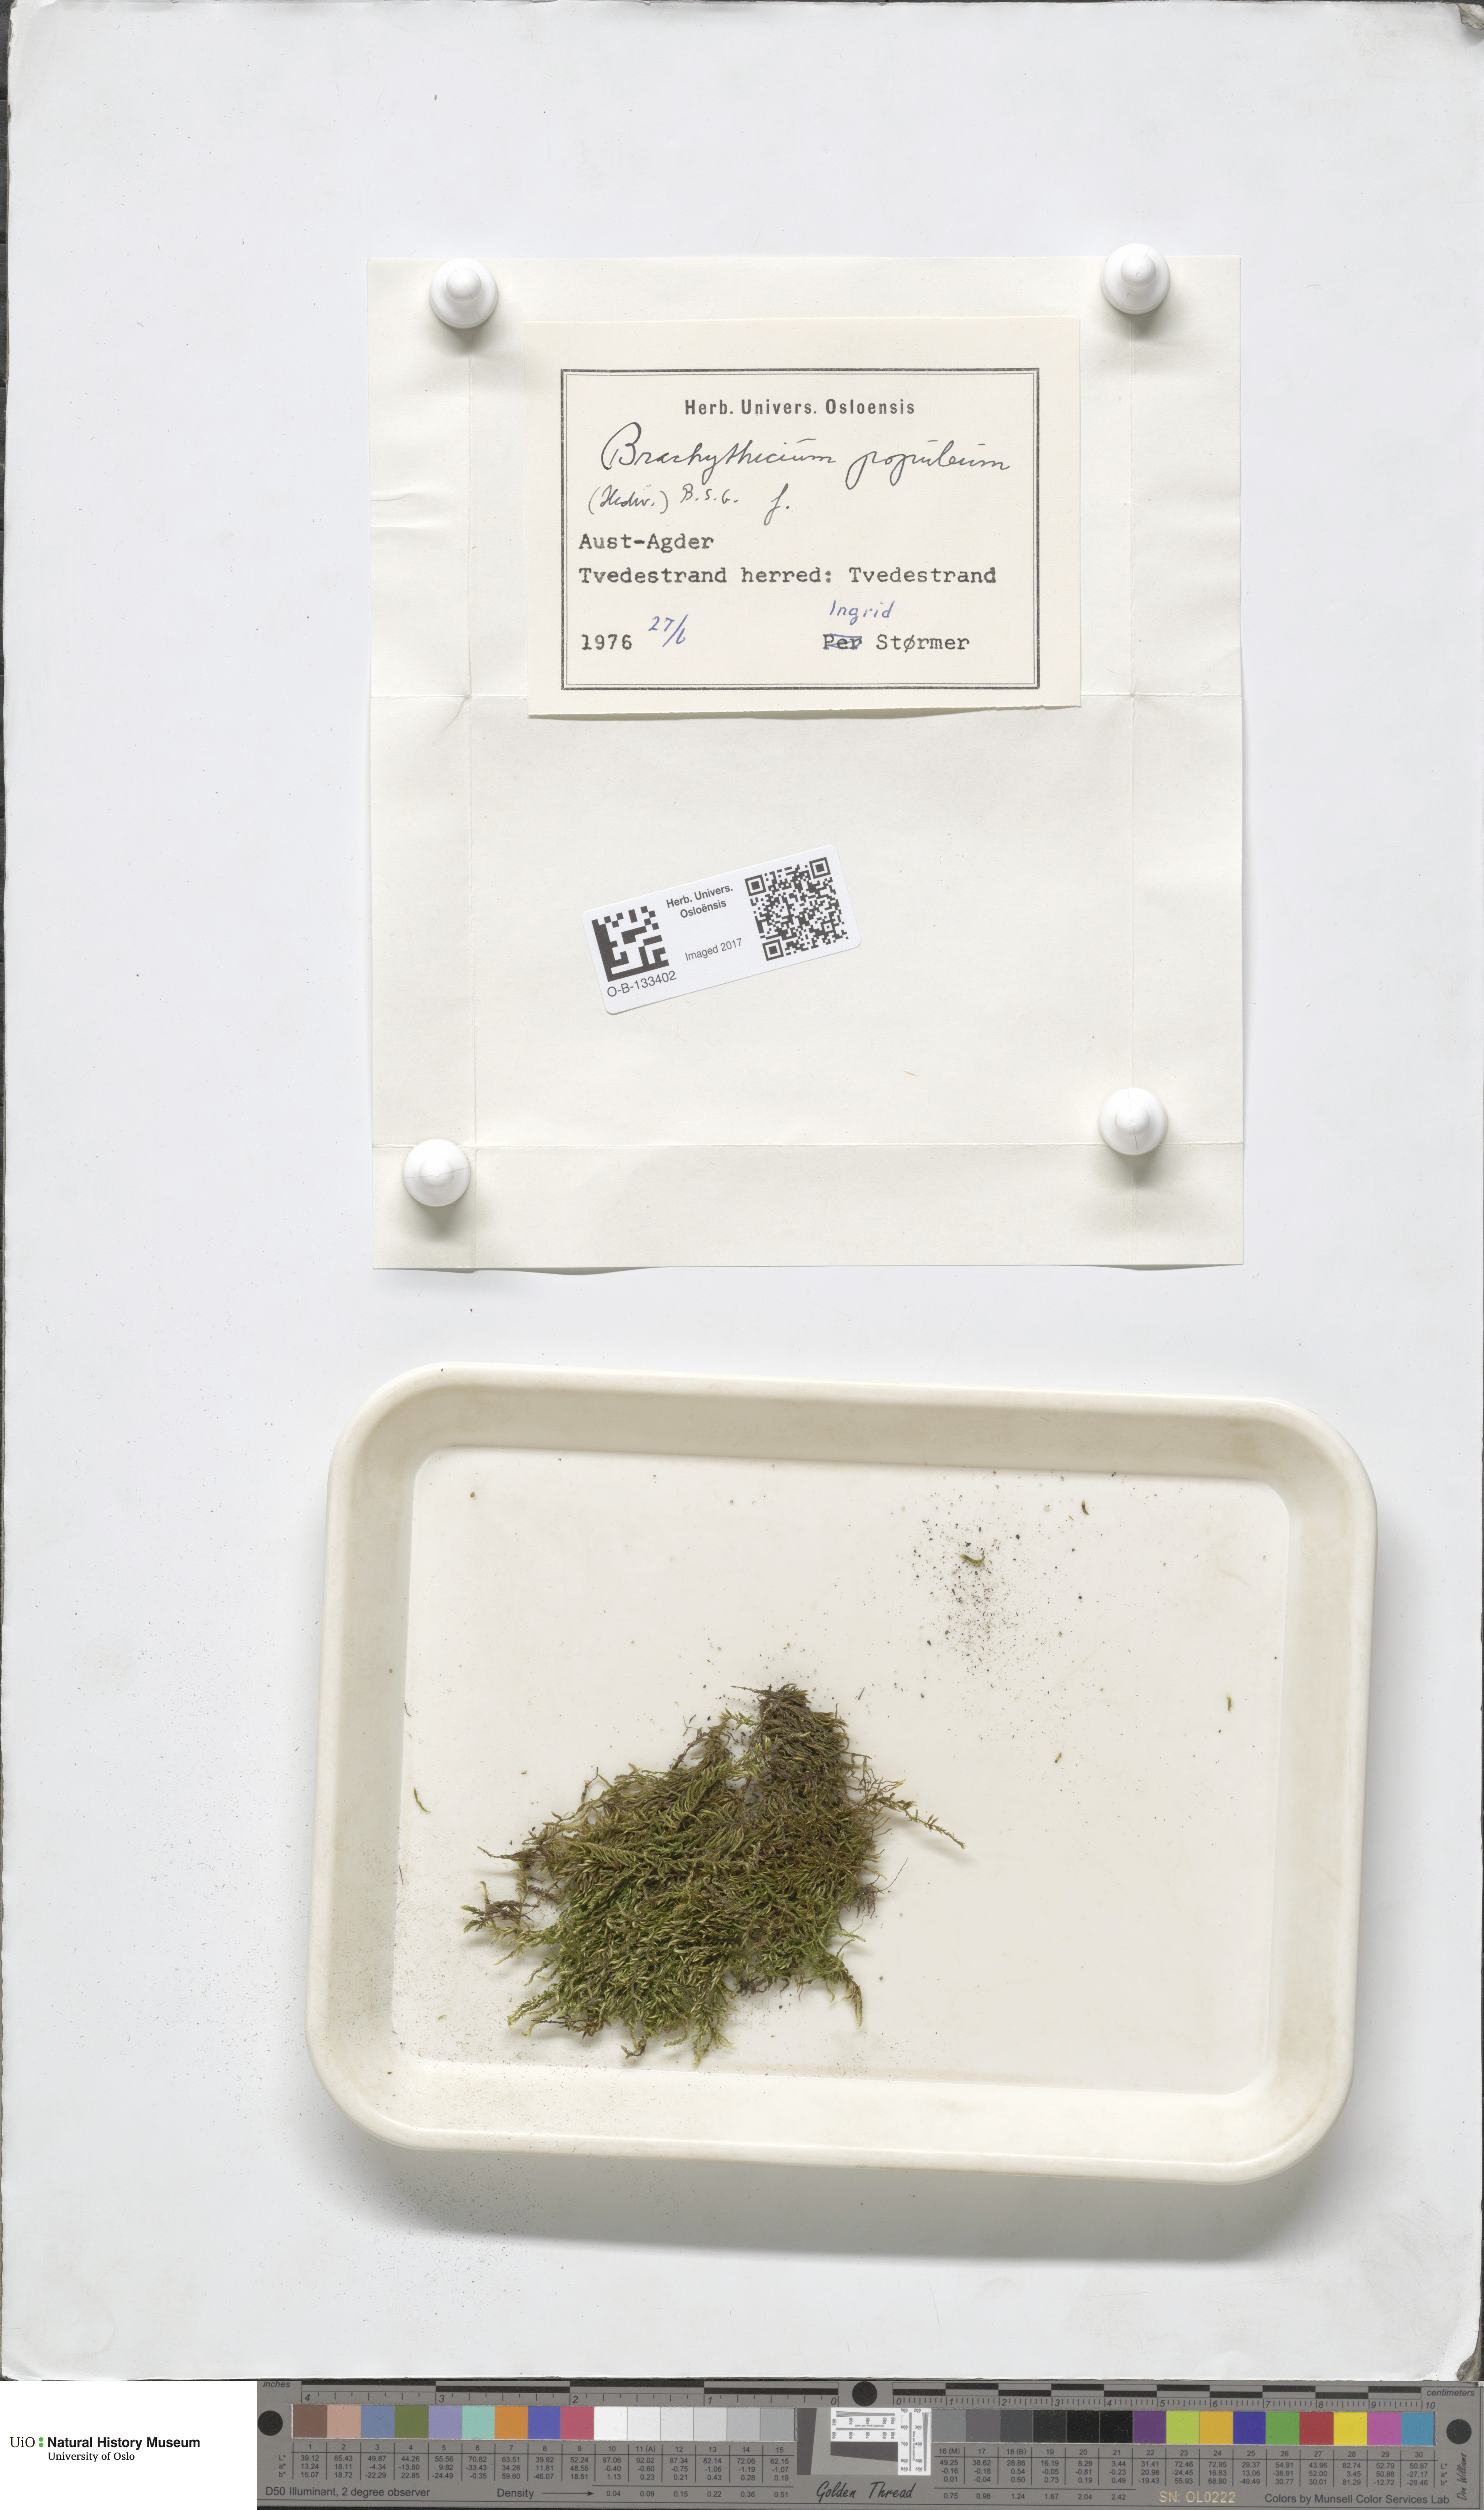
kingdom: Plantae
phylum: Bryophyta
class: Bryopsida
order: Hypnales
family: Brachytheciaceae
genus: Sciuro-hypnum
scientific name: Sciuro-hypnum plumosum
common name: Rusty feather-moss
